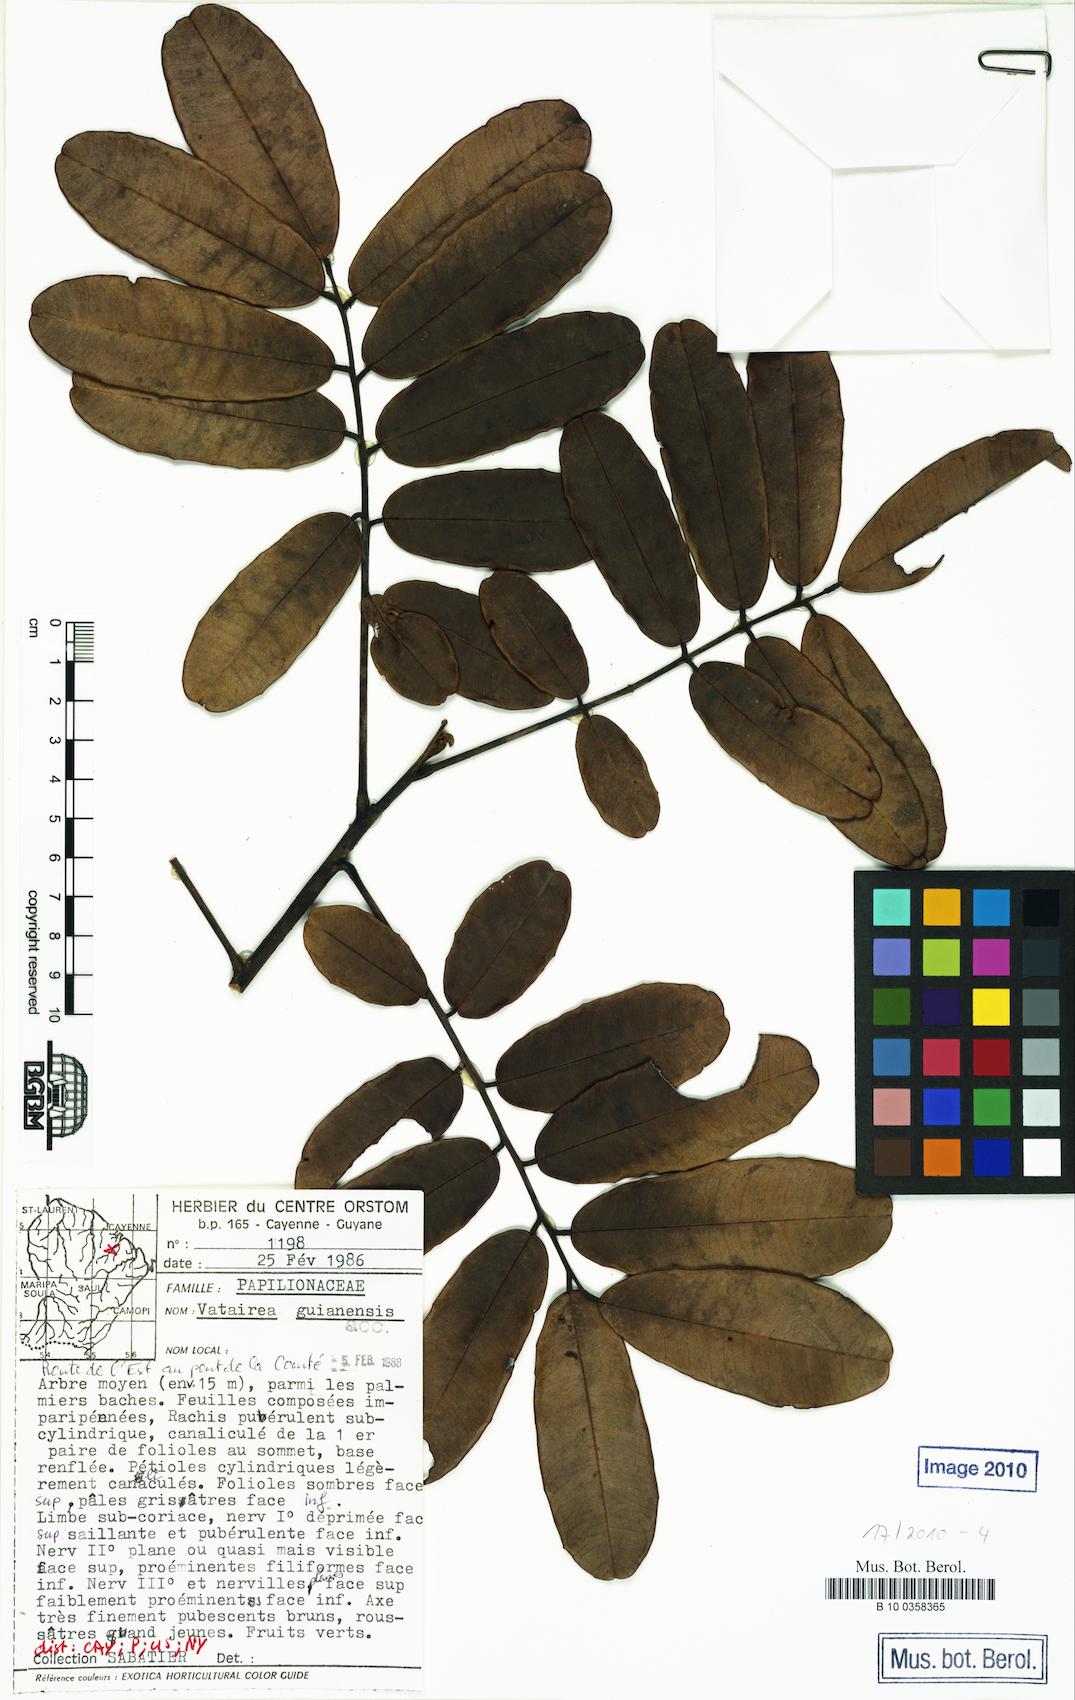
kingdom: Plantae
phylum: Tracheophyta
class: Magnoliopsida
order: Fabales
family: Fabaceae
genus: Vatairea
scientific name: Vatairea guianensis
